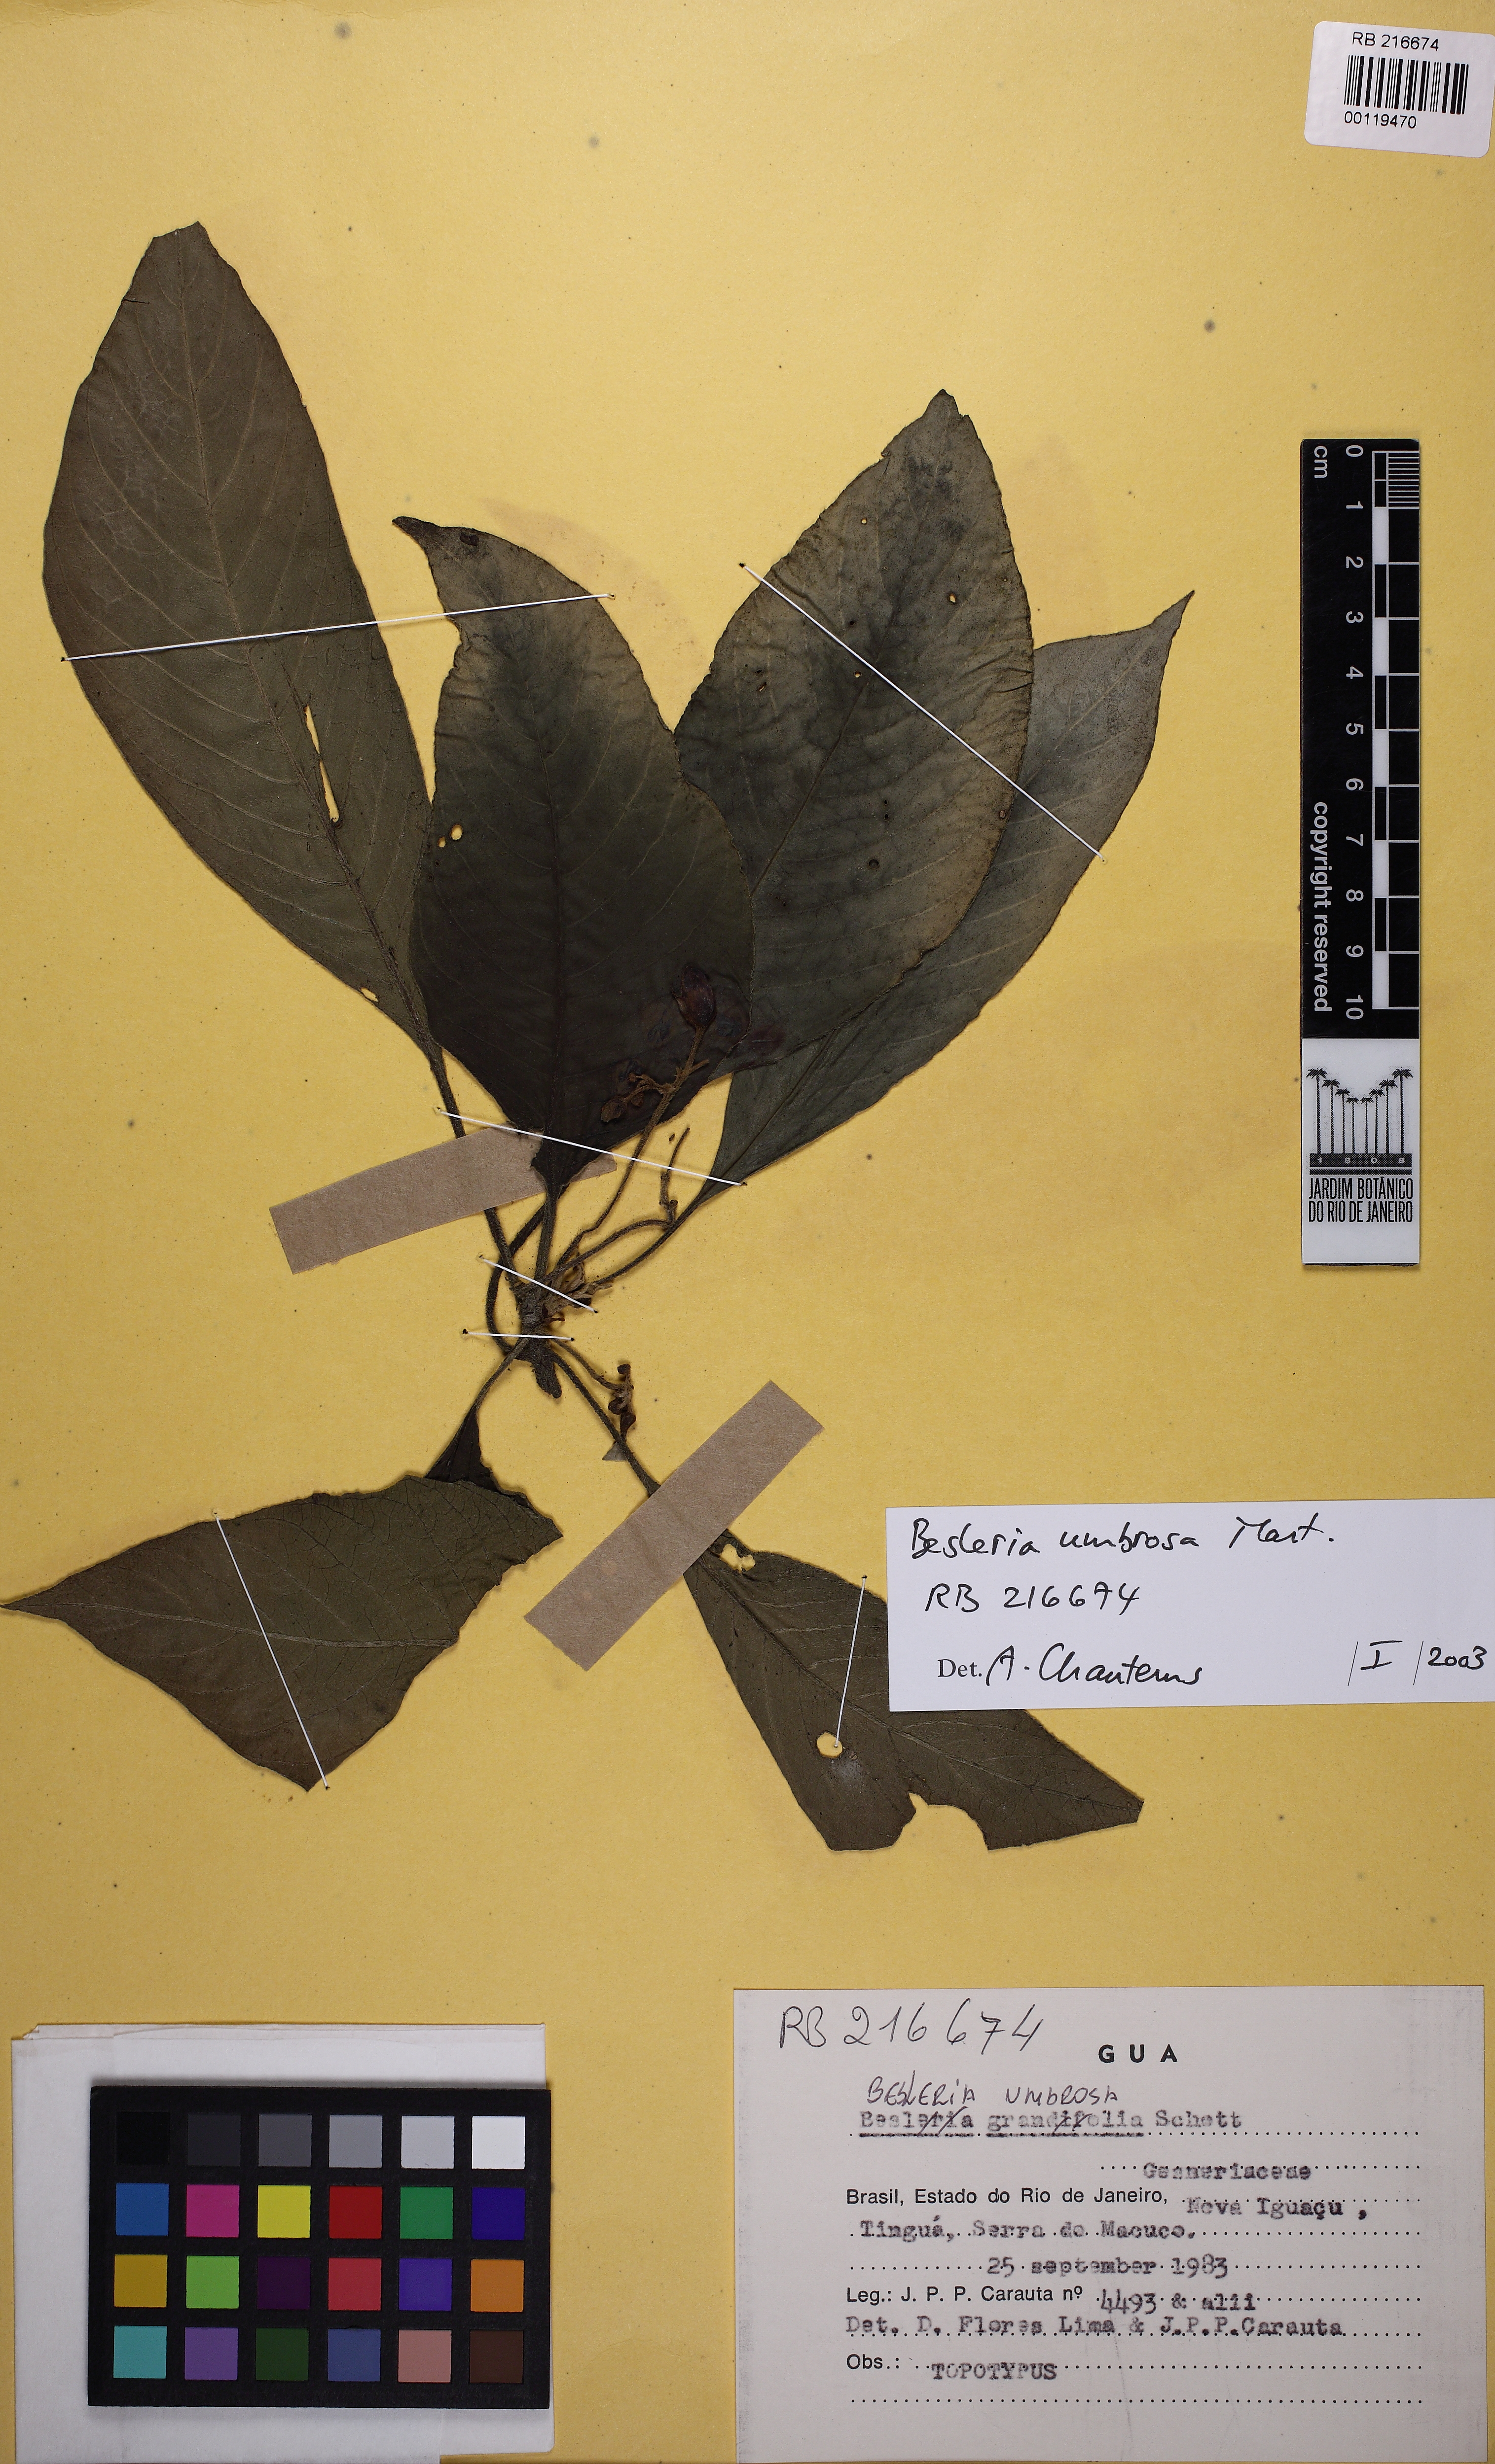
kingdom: Plantae
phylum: Tracheophyta
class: Magnoliopsida
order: Lamiales
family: Gesneriaceae
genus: Besleria
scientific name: Besleria grandifolia
